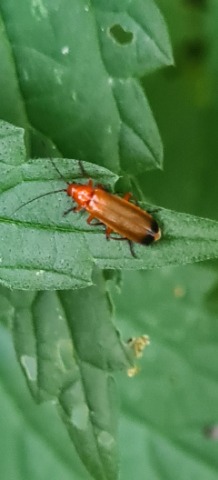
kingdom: Animalia
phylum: Arthropoda
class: Insecta
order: Coleoptera
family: Cantharidae
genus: Rhagonycha
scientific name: Rhagonycha fulva
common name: Præstebille
